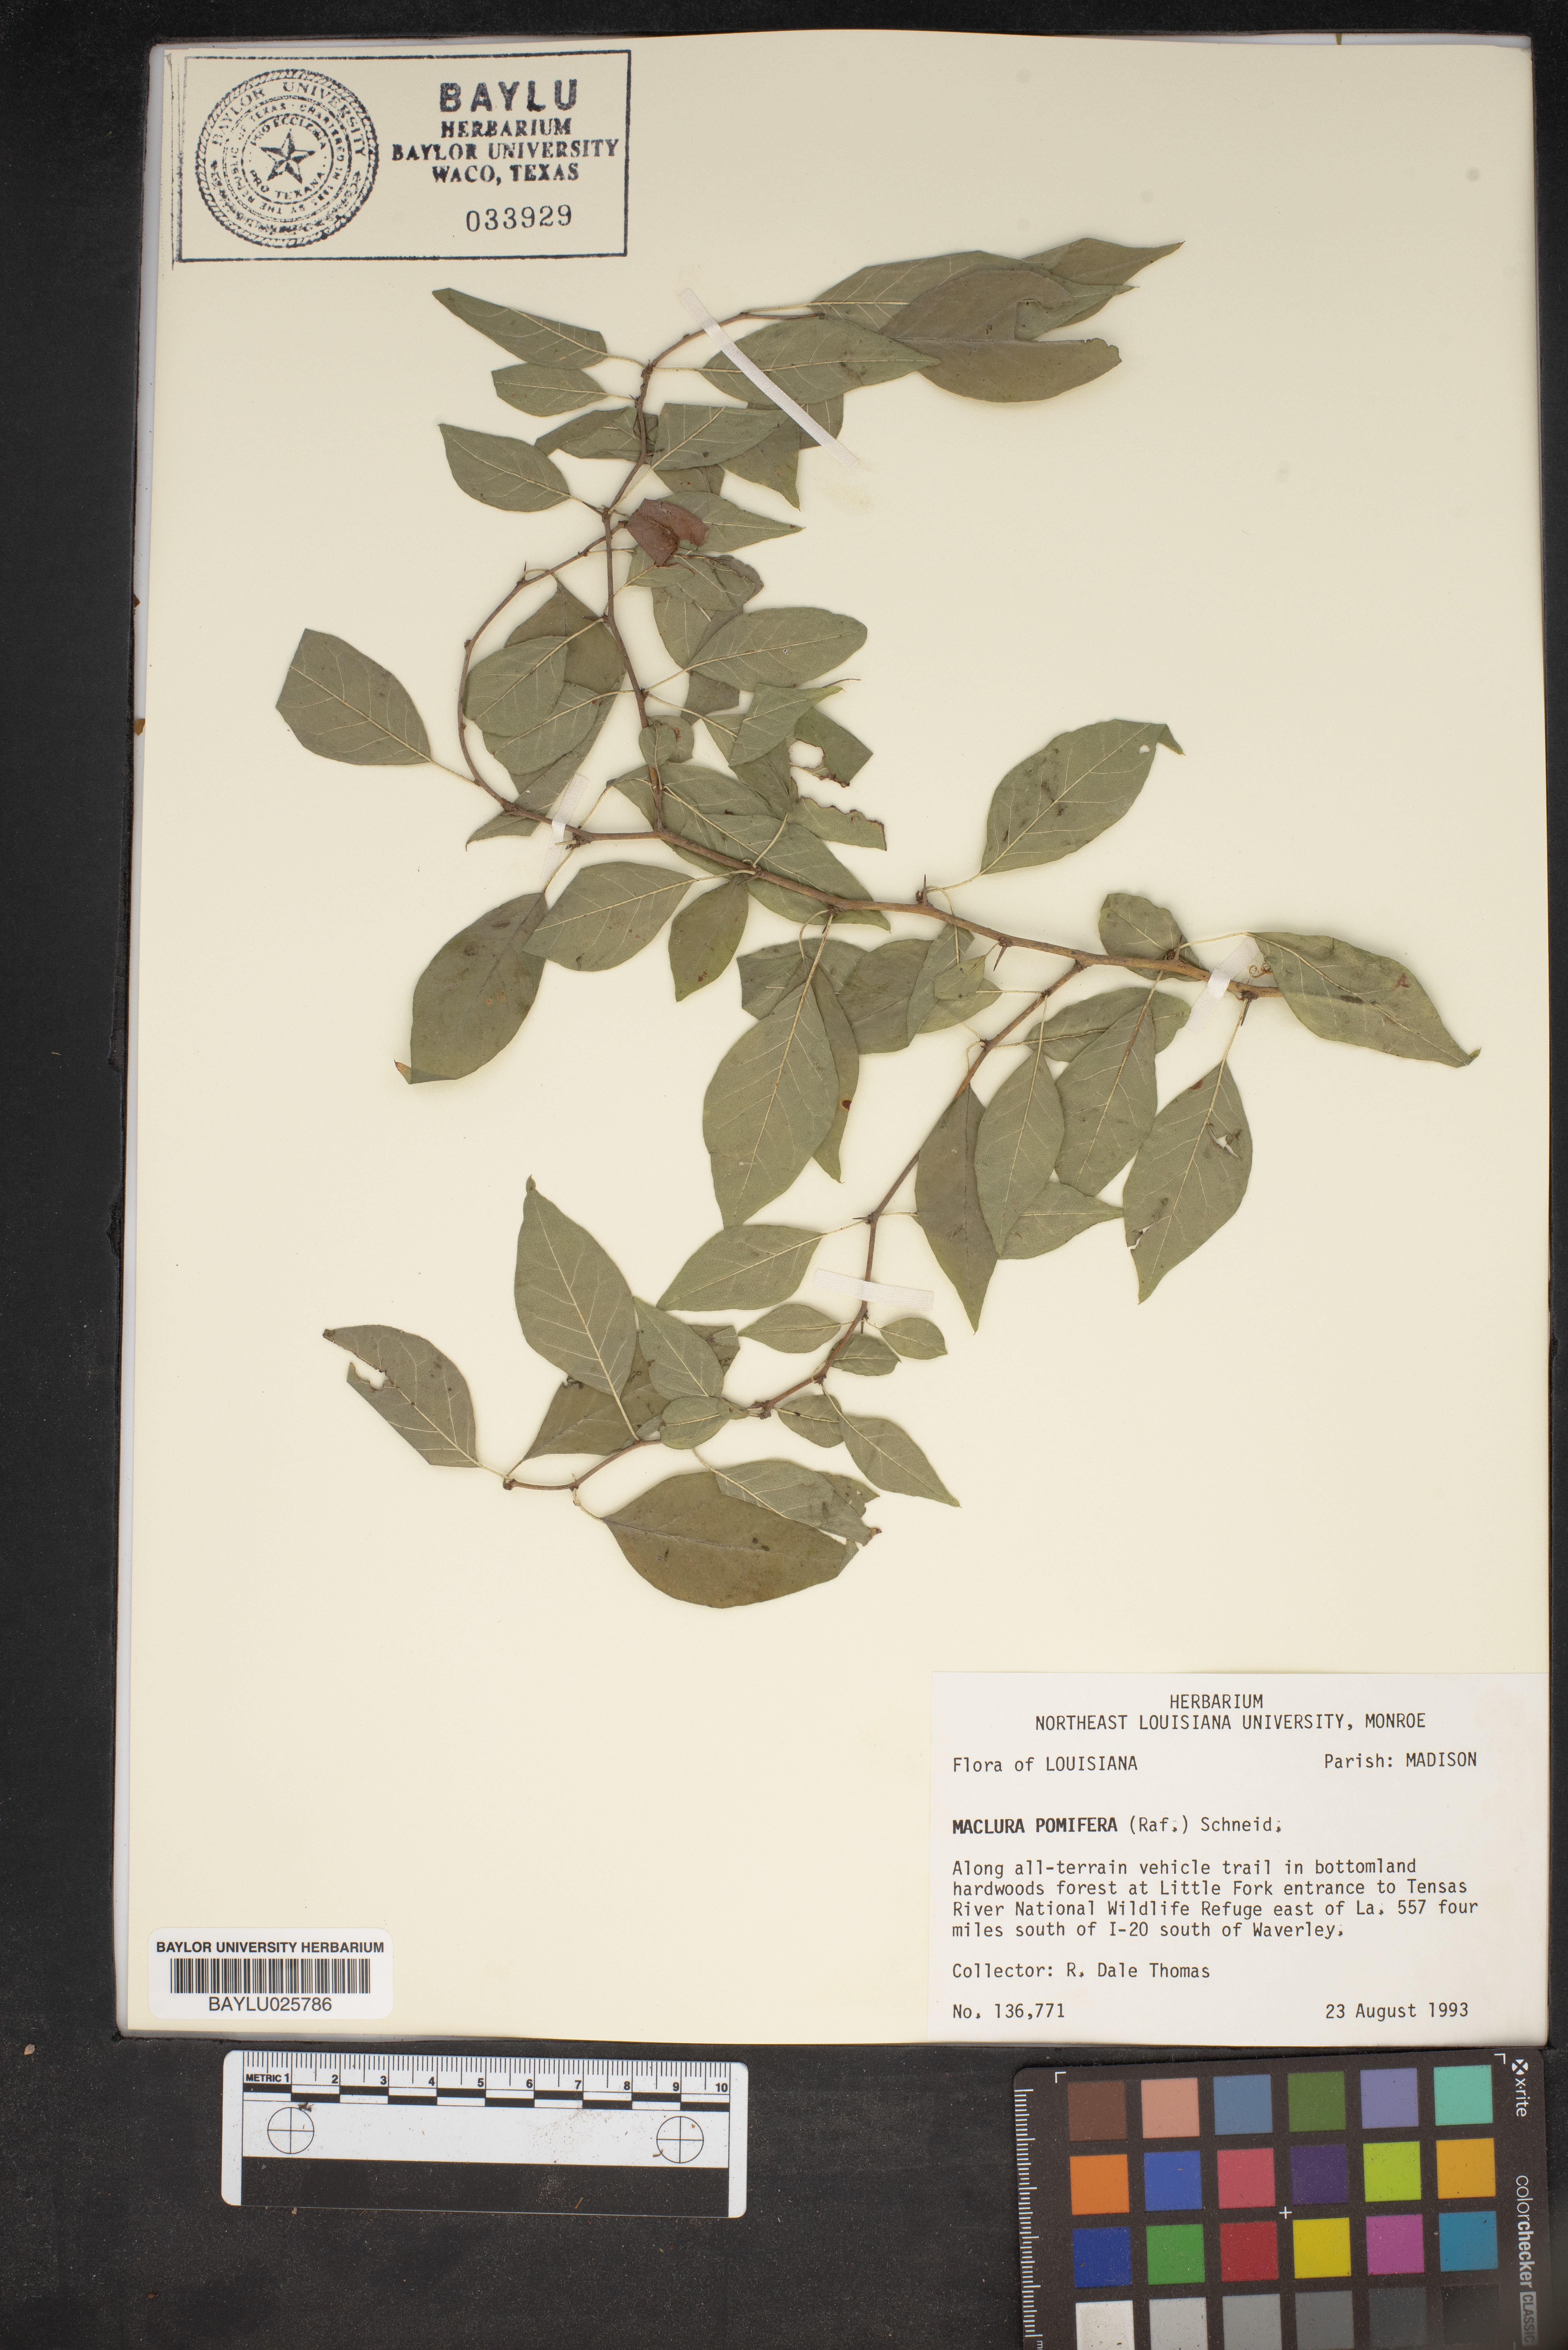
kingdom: Plantae
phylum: Tracheophyta
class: Magnoliopsida
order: Rosales
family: Moraceae
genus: Maclura
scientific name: Maclura pomifera
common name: Osage-orange
